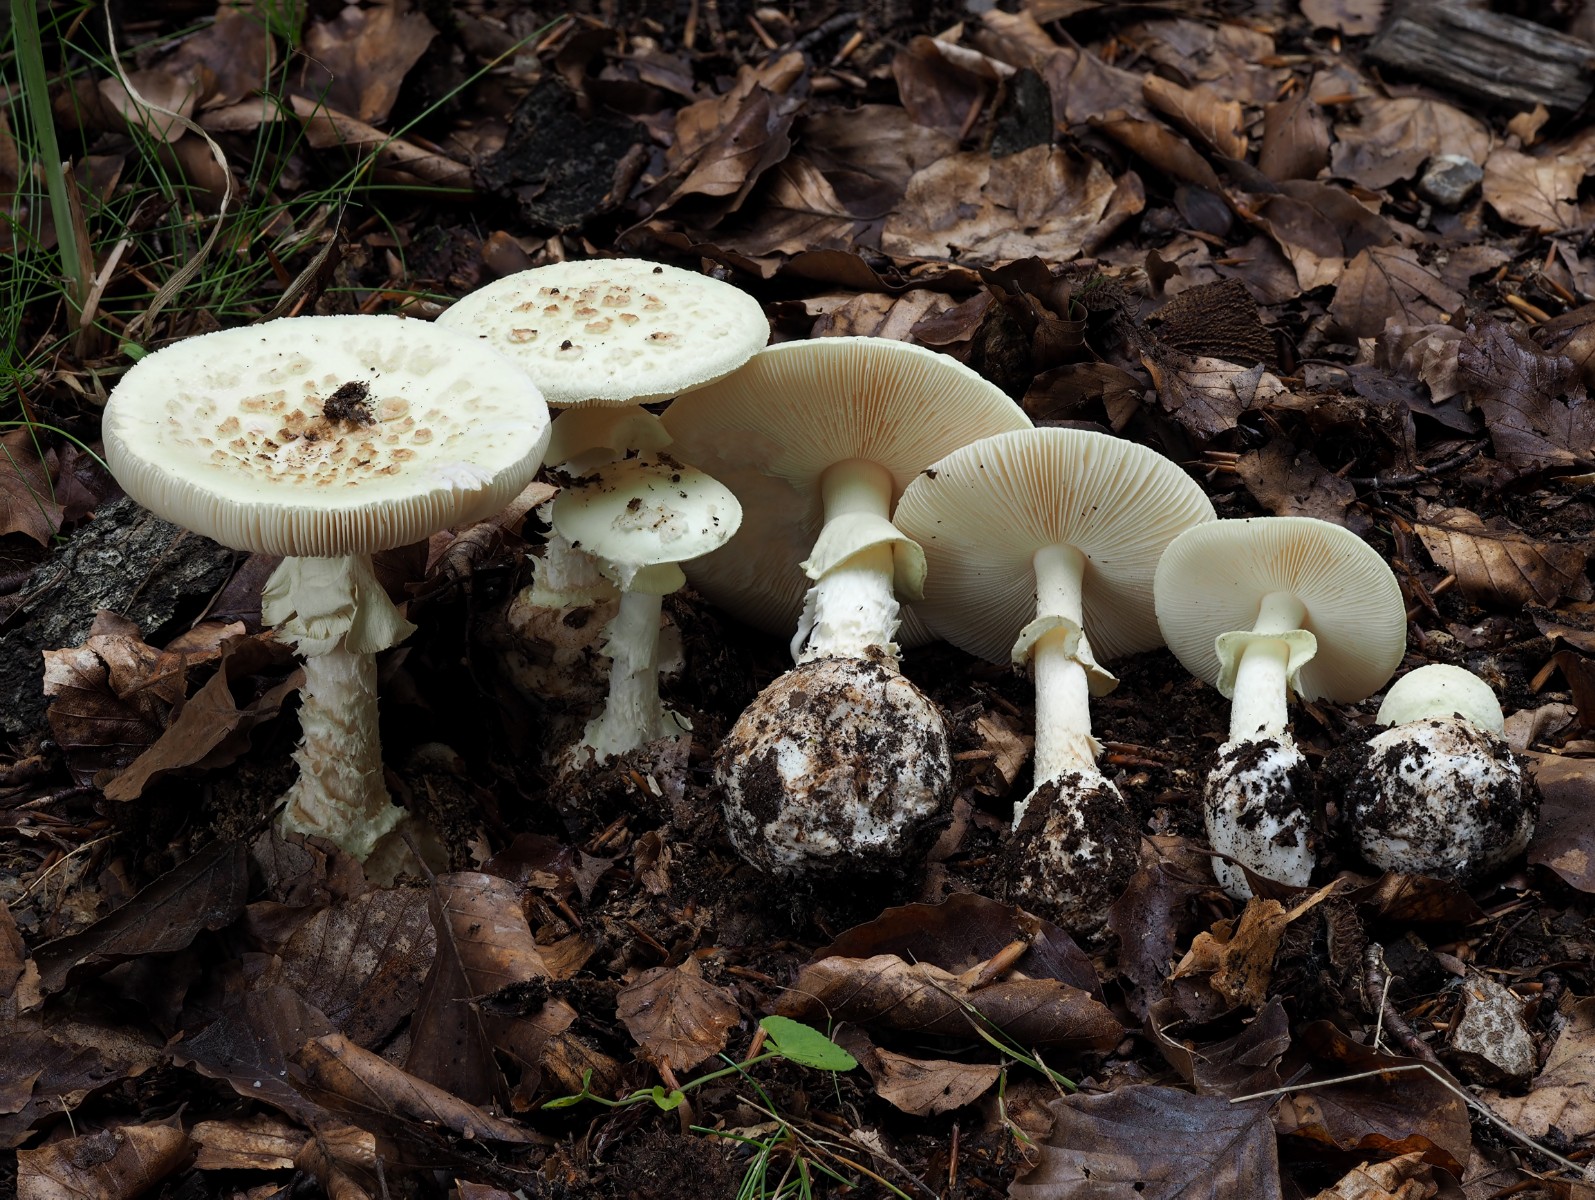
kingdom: Fungi
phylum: Basidiomycota
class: Agaricomycetes
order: Agaricales
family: Amanitaceae
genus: Amanita
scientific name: Amanita citrina
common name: kugleknoldet fluesvamp
